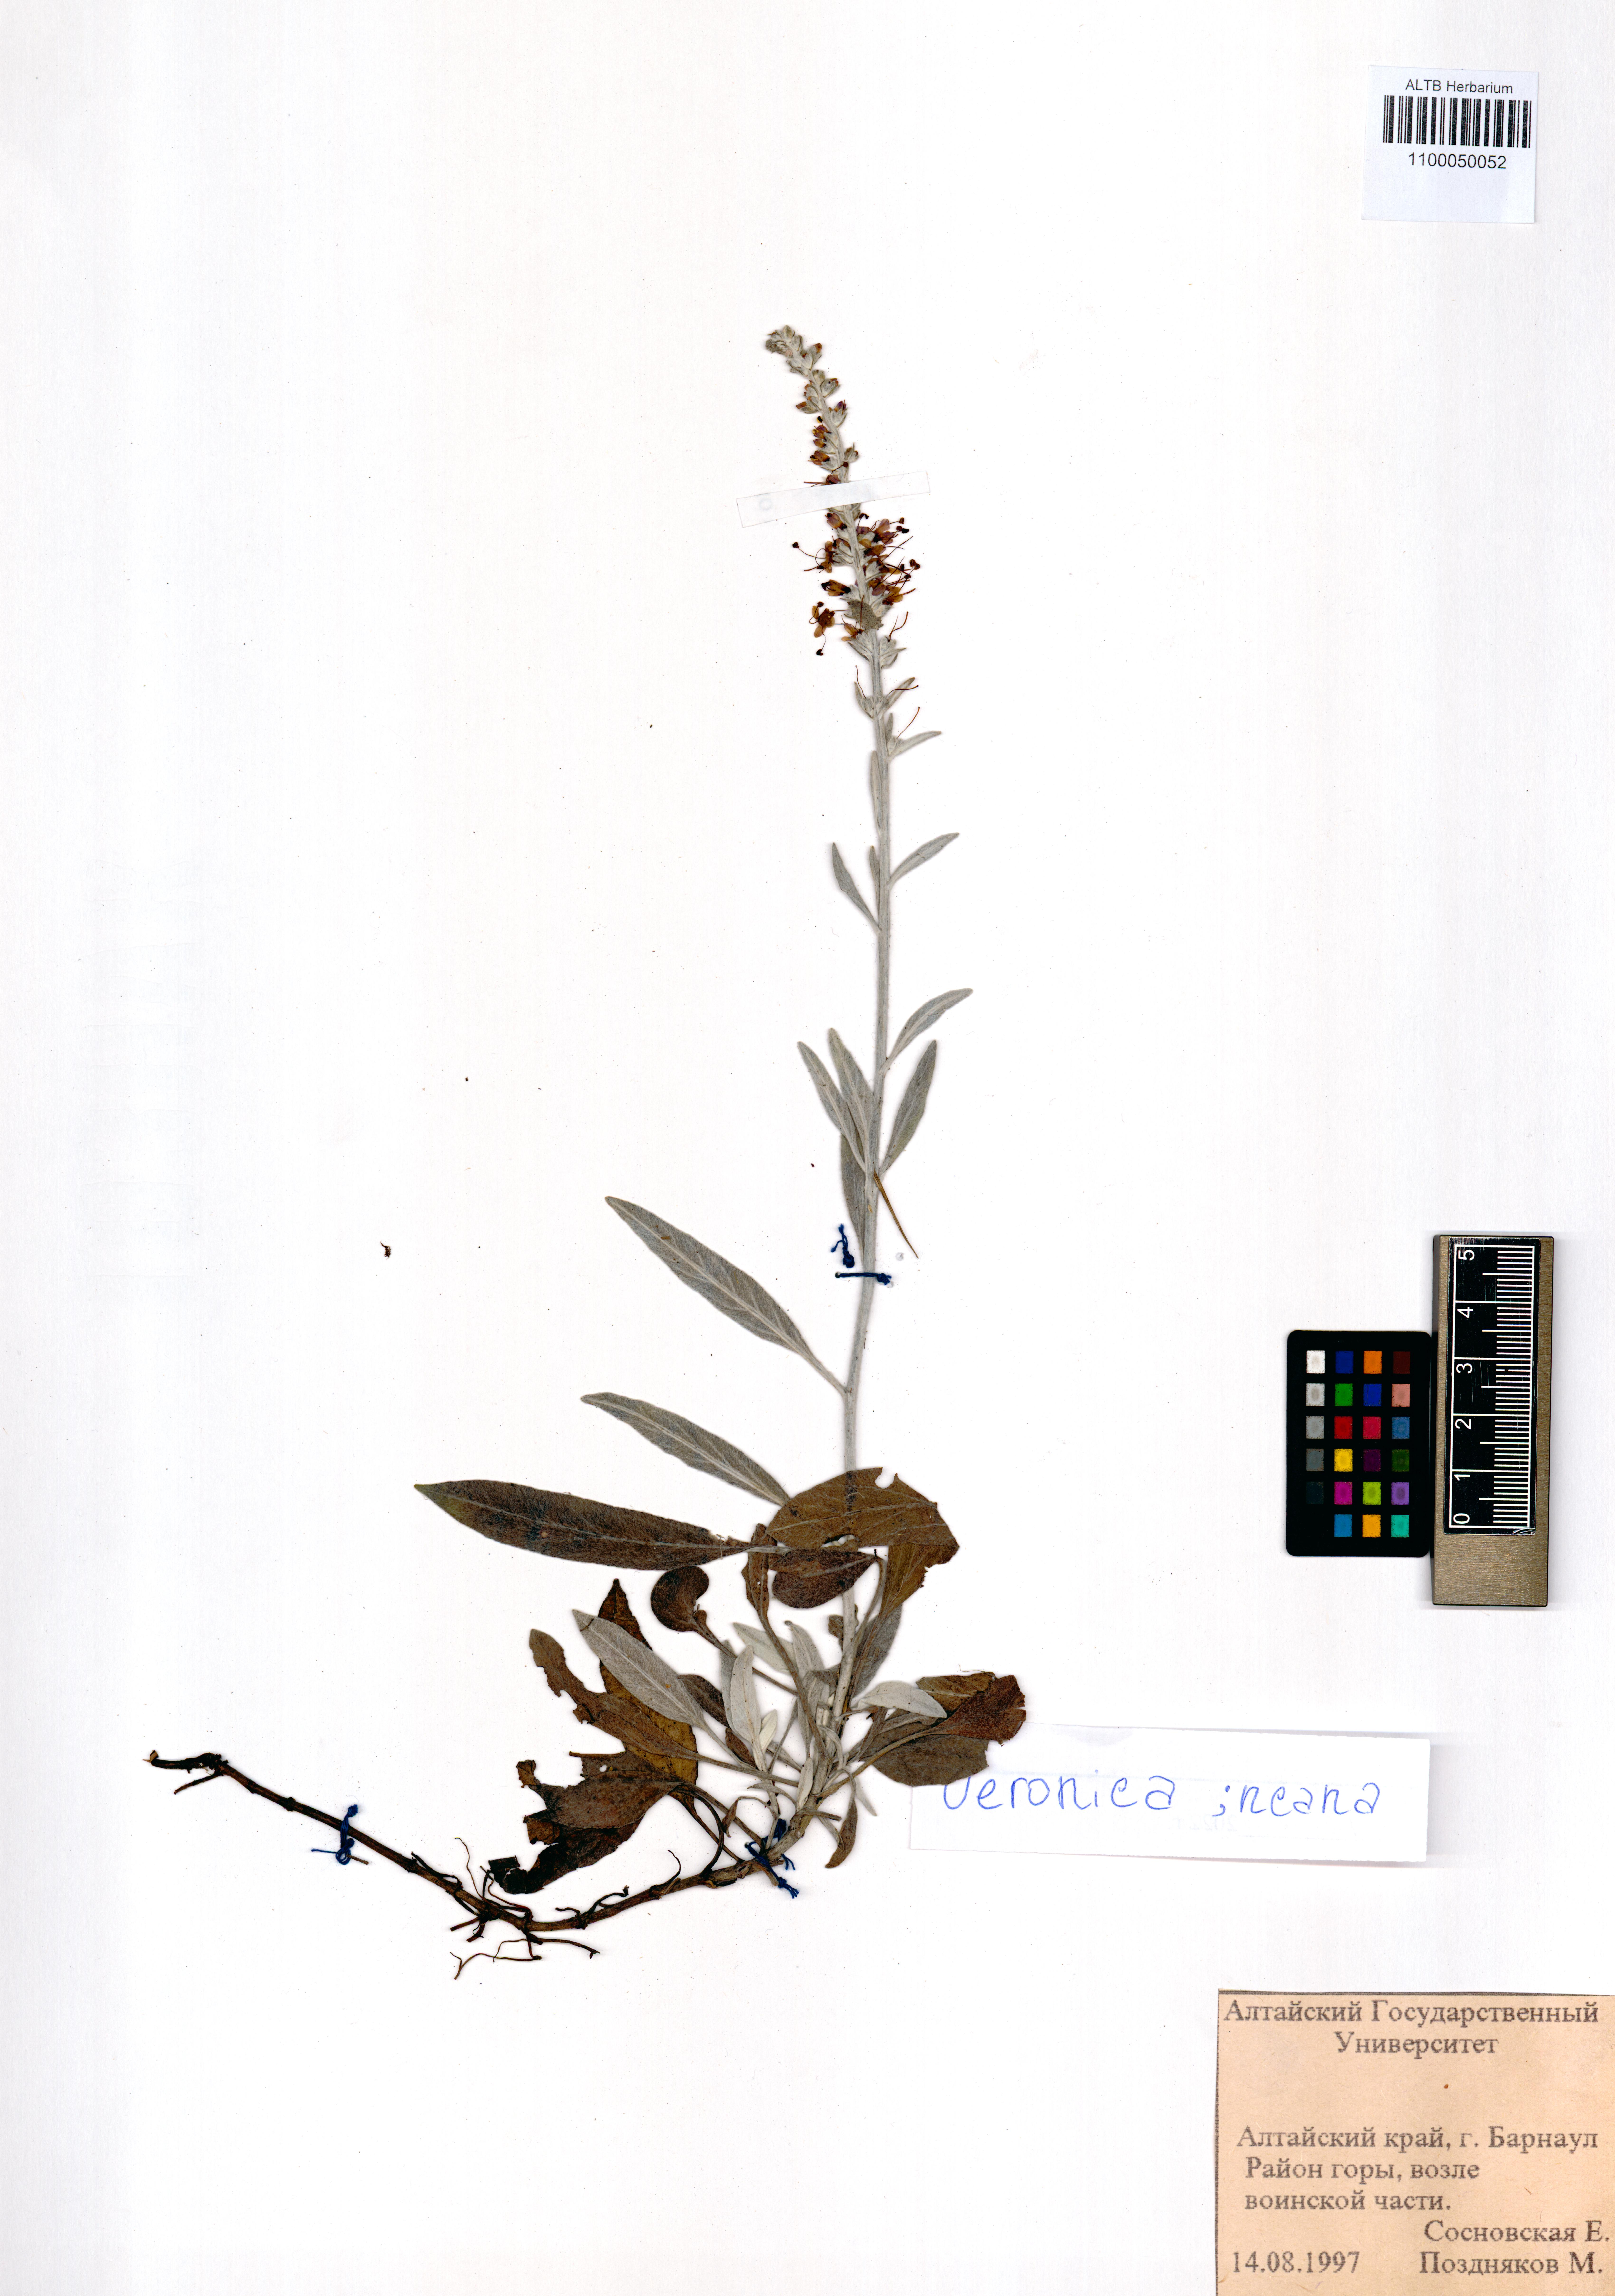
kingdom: Plantae
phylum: Tracheophyta
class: Magnoliopsida
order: Lamiales
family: Plantaginaceae
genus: Veronica
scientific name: Veronica incana
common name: Silver speedwell
